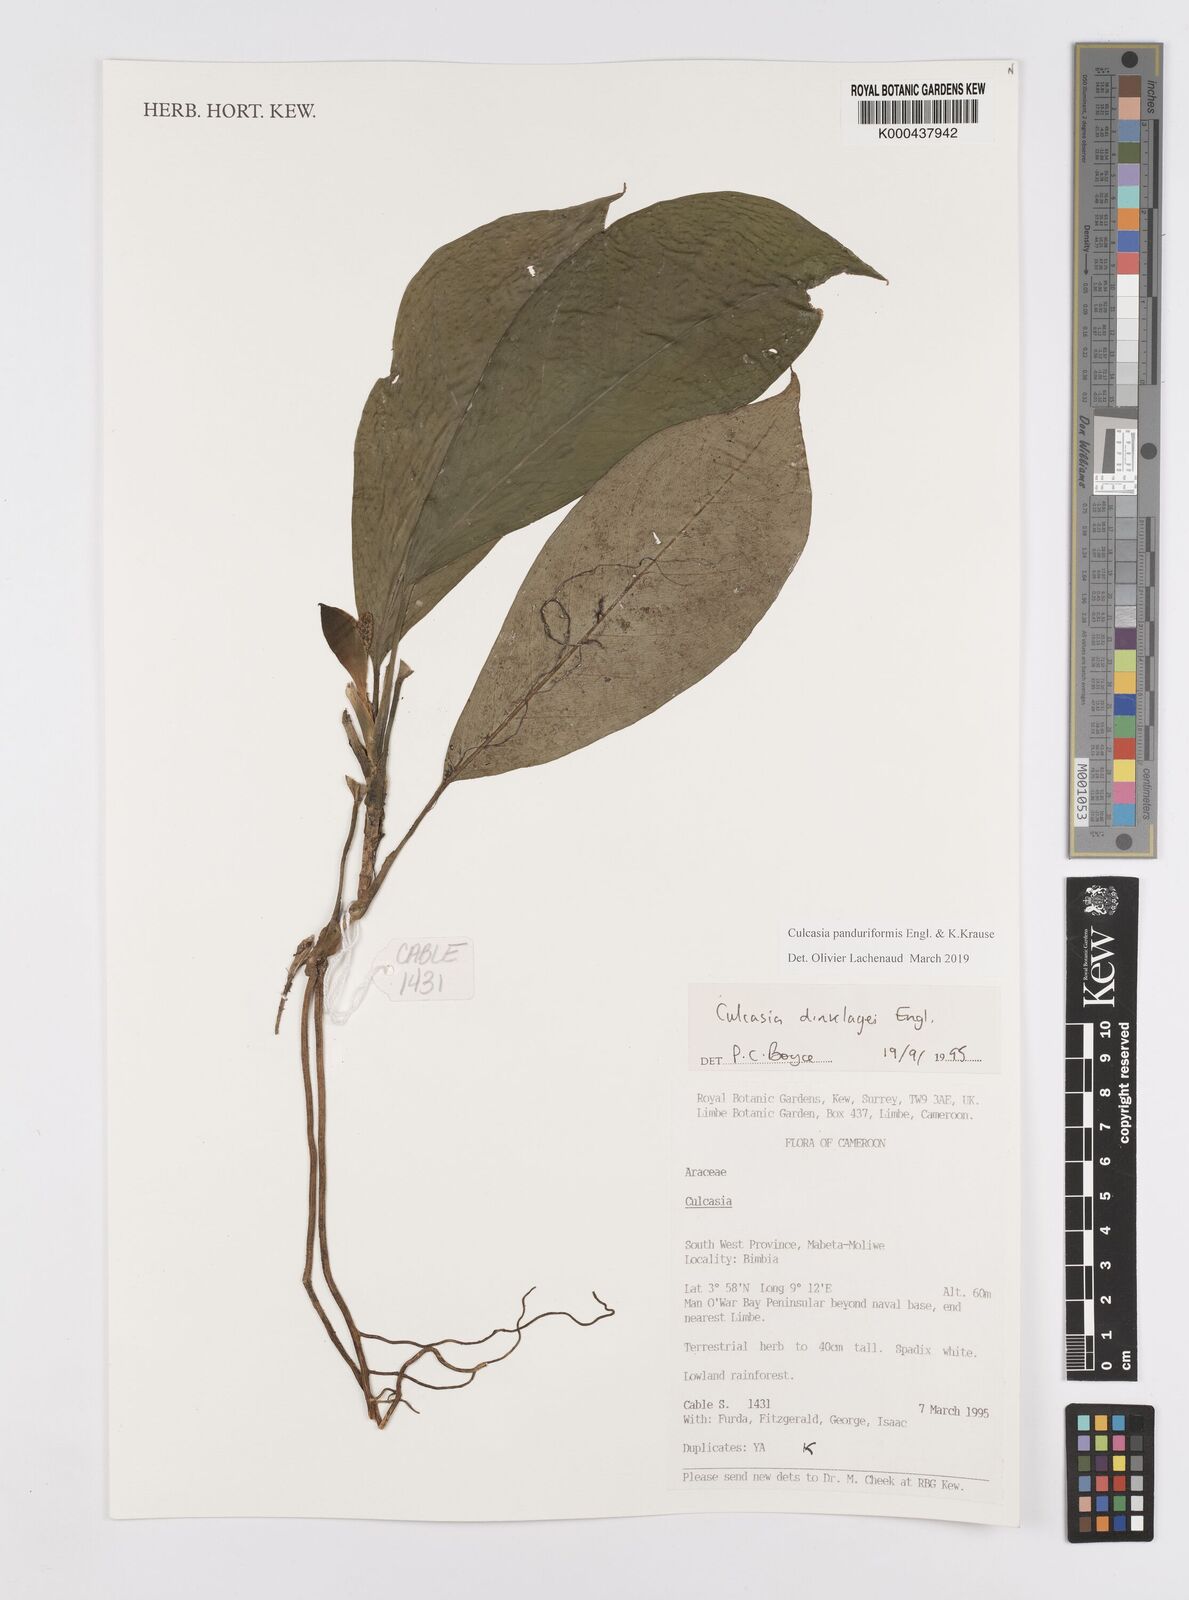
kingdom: Plantae
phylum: Tracheophyta
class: Liliopsida
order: Alismatales
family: Araceae
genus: Culcasia
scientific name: Culcasia panduriformis
